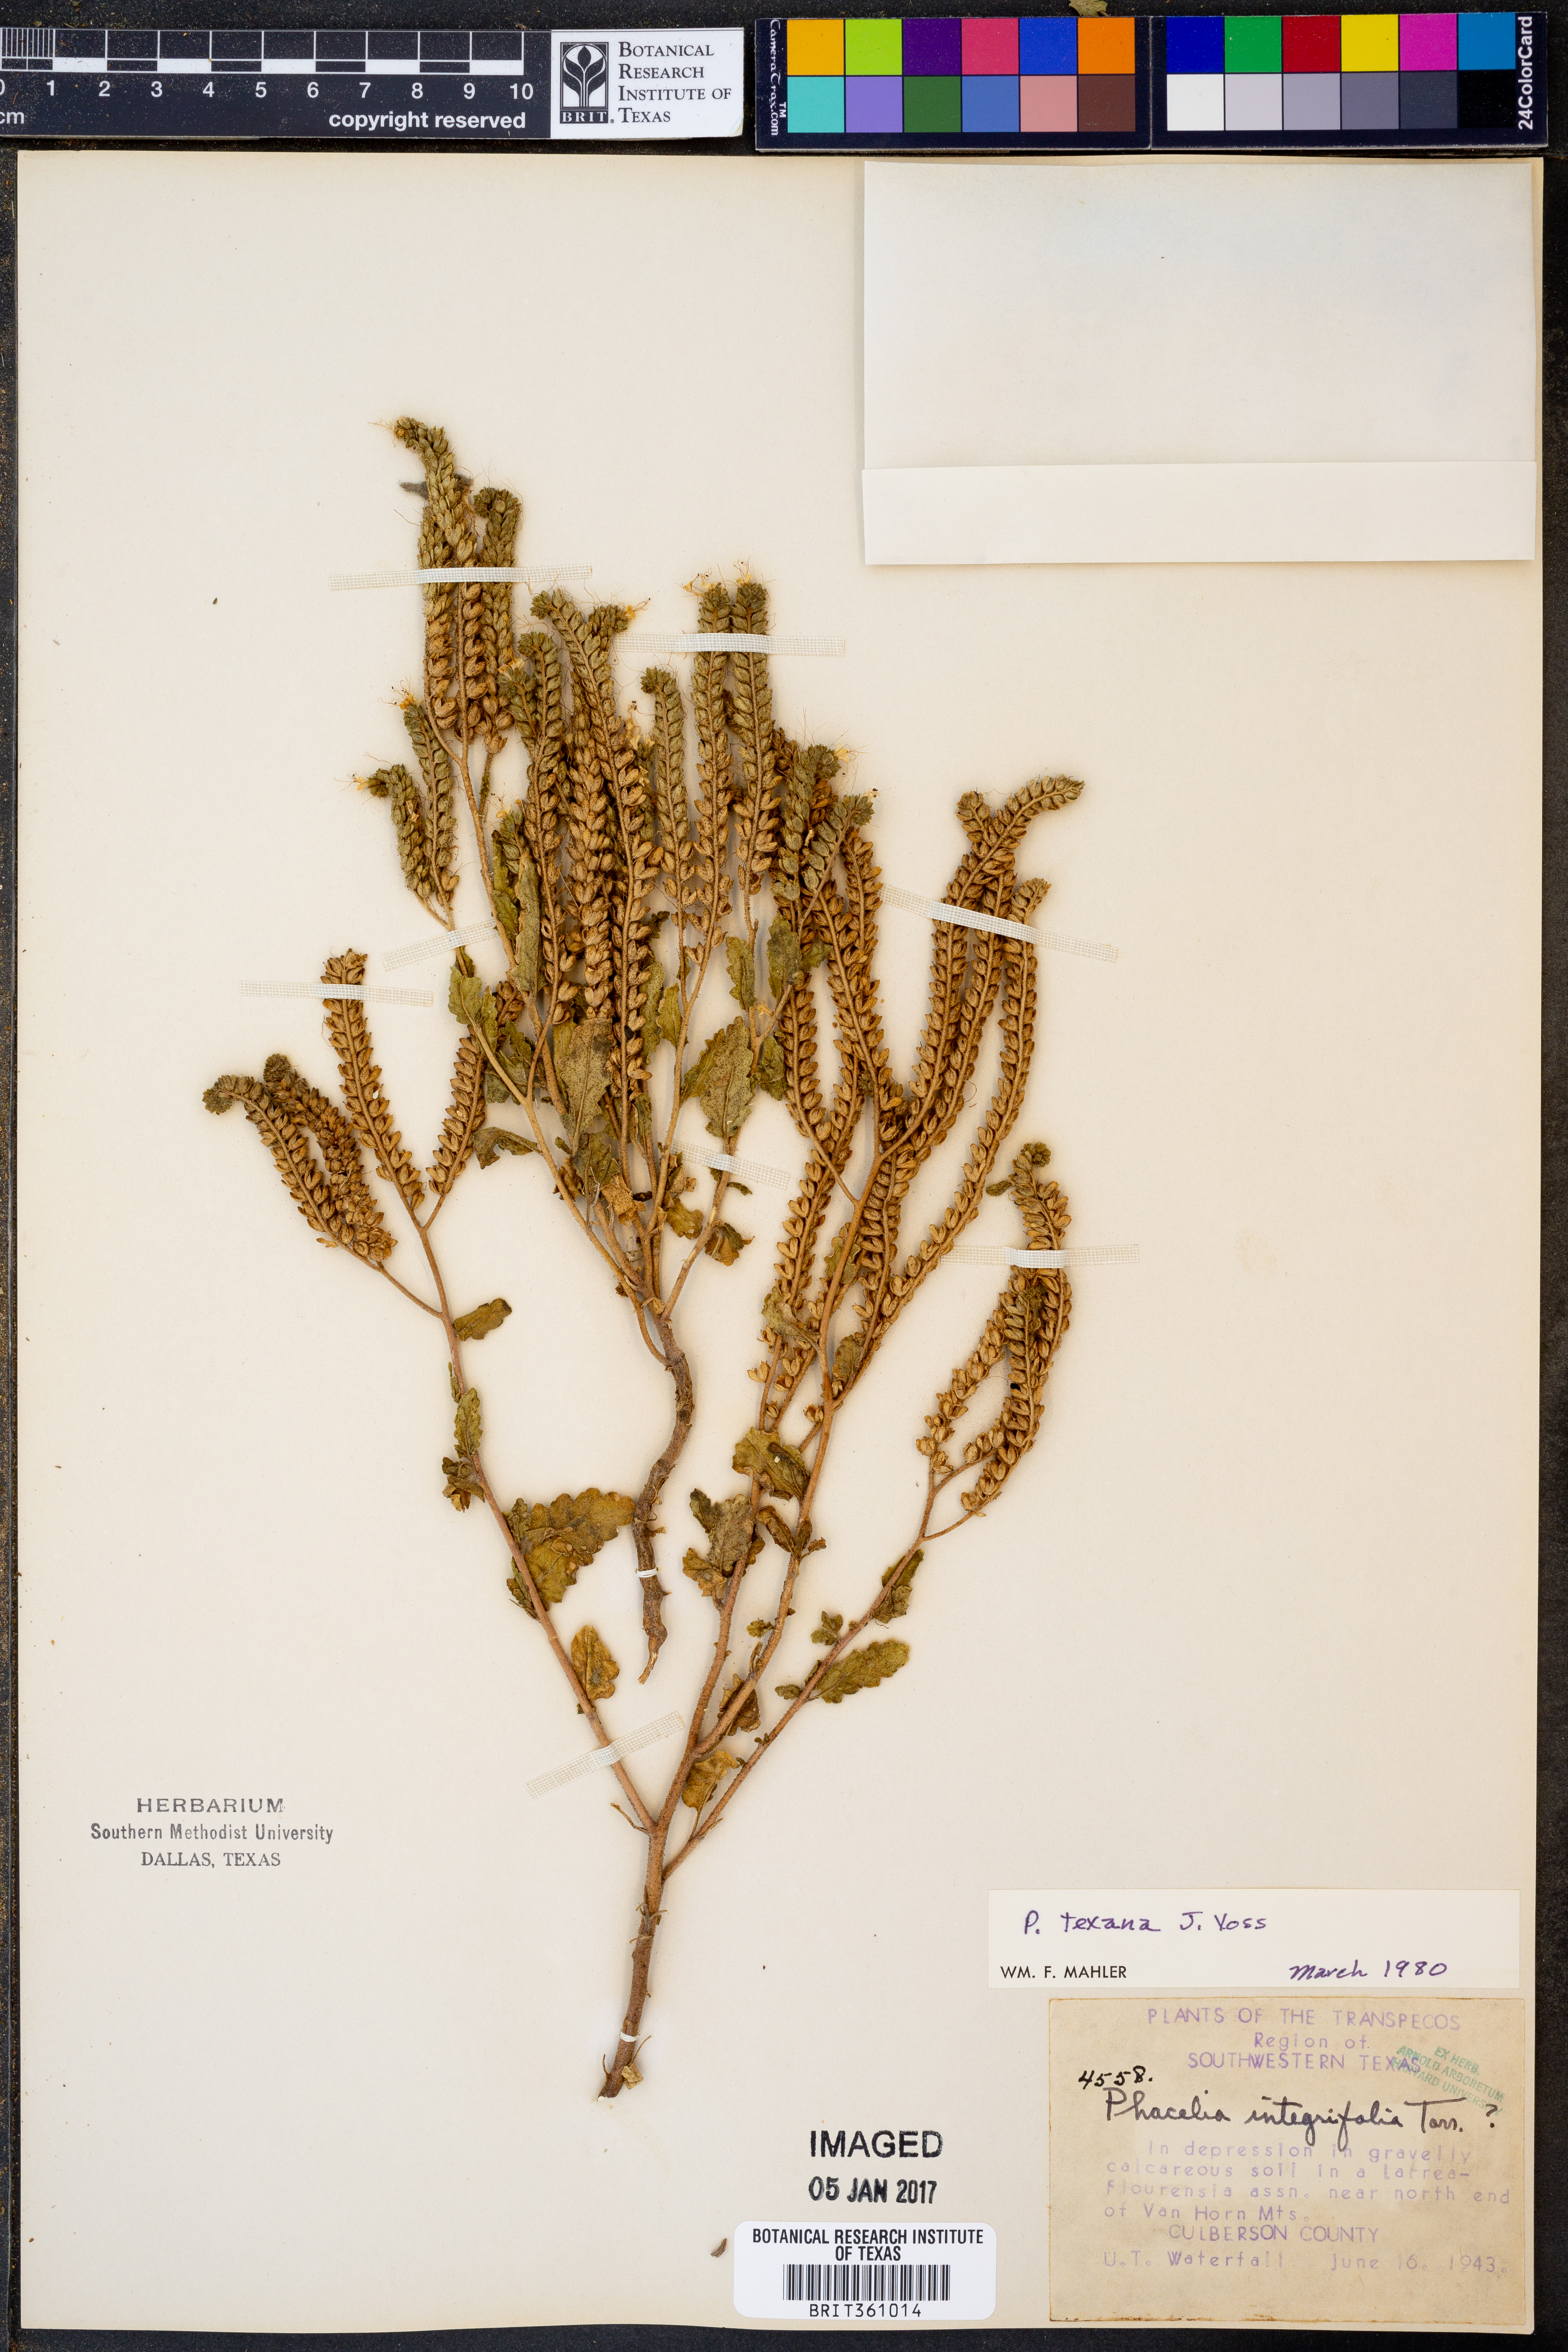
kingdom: Plantae
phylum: Tracheophyta
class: Magnoliopsida
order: Boraginales
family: Hydrophyllaceae
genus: Phacelia
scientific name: Phacelia integrifolia
